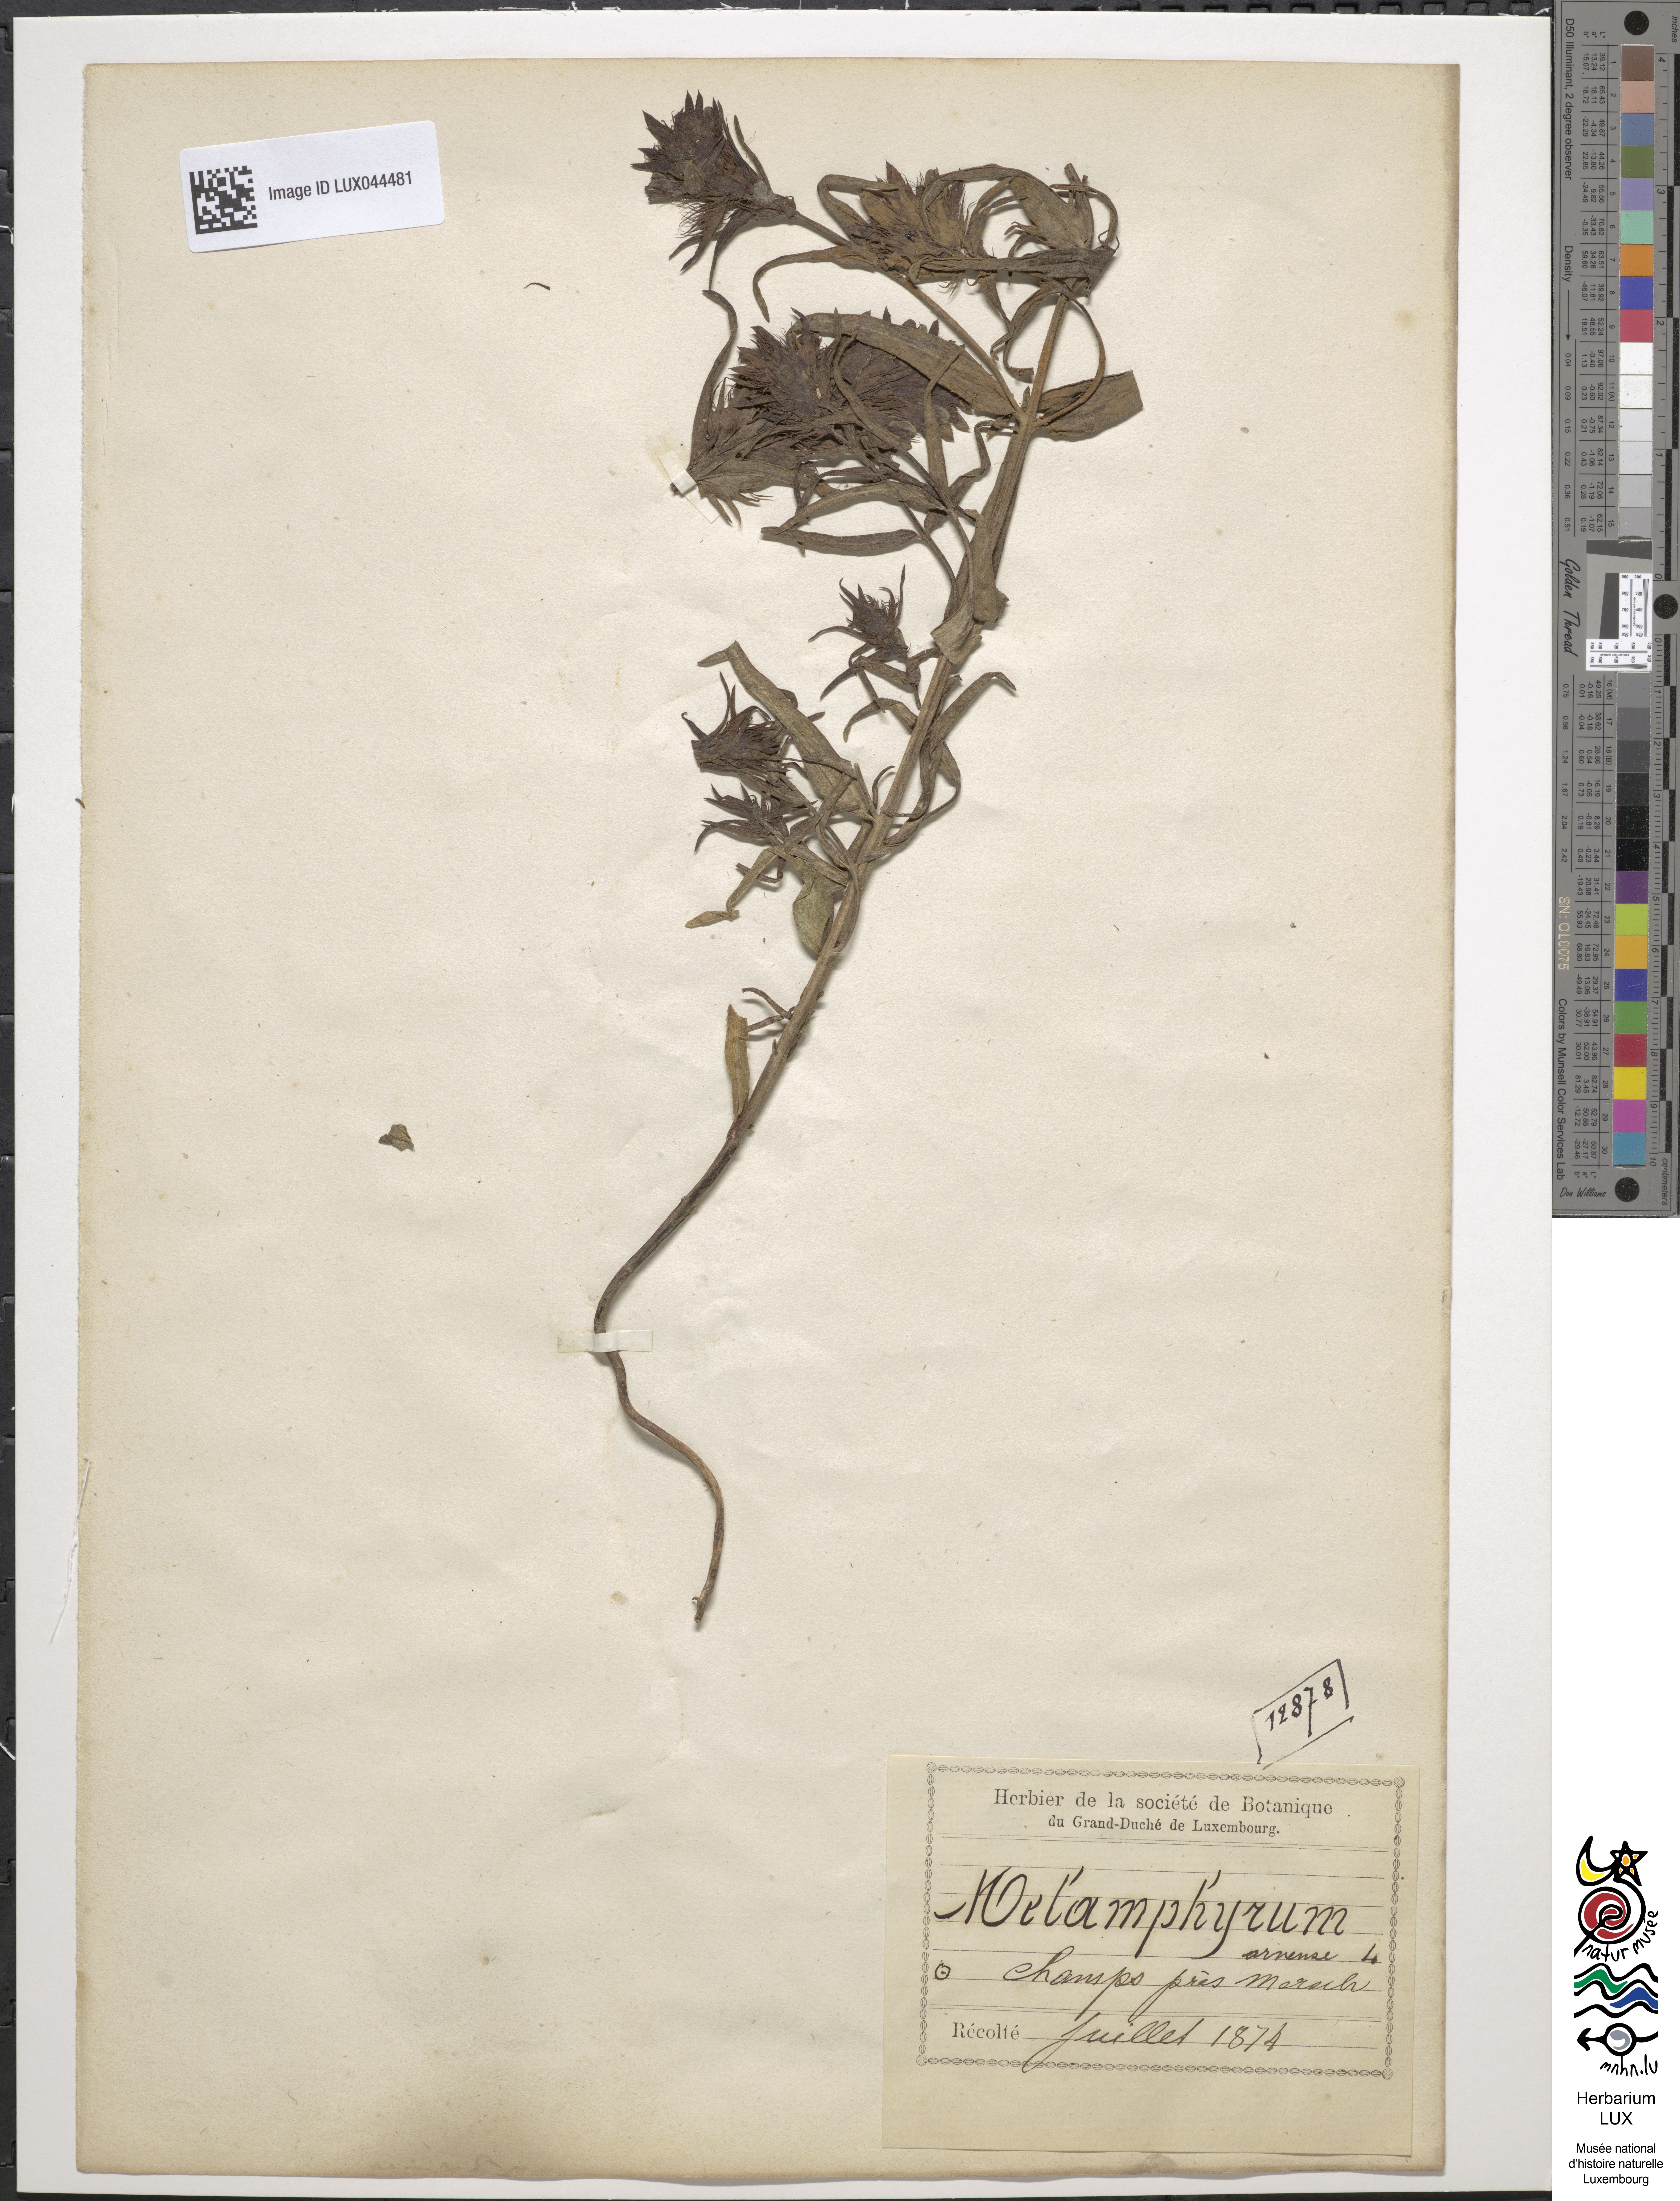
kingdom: Plantae
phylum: Tracheophyta
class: Magnoliopsida
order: Lamiales
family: Orobanchaceae
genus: Melampyrum
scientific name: Melampyrum arvense
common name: Field cow-wheat
